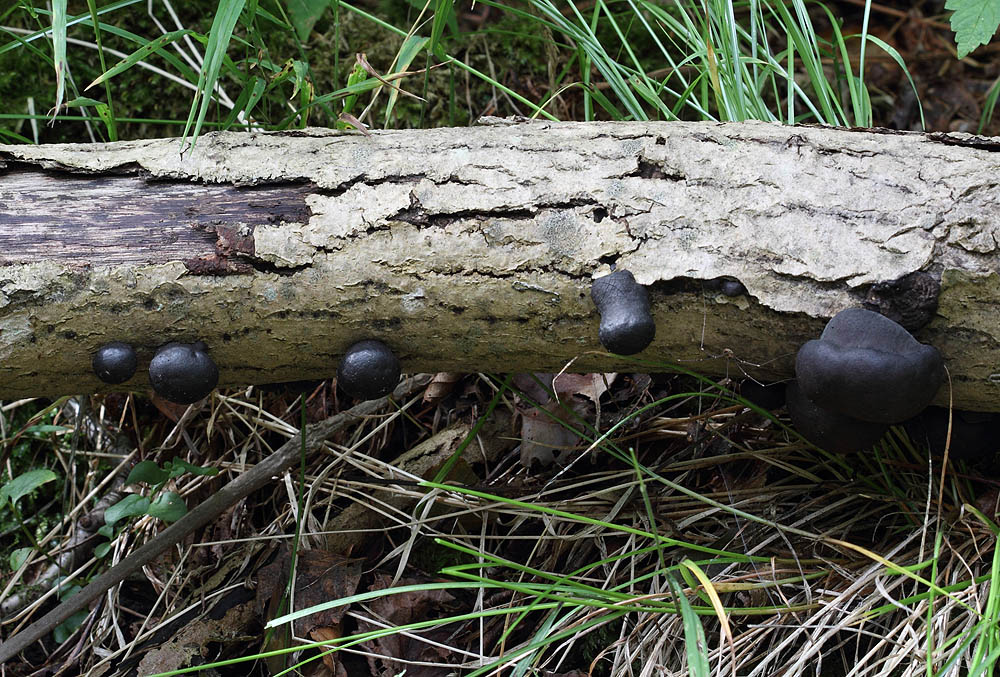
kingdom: Fungi
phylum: Ascomycota
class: Sordariomycetes
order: Xylariales
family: Hypoxylaceae
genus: Daldinia
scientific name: Daldinia concentrica
